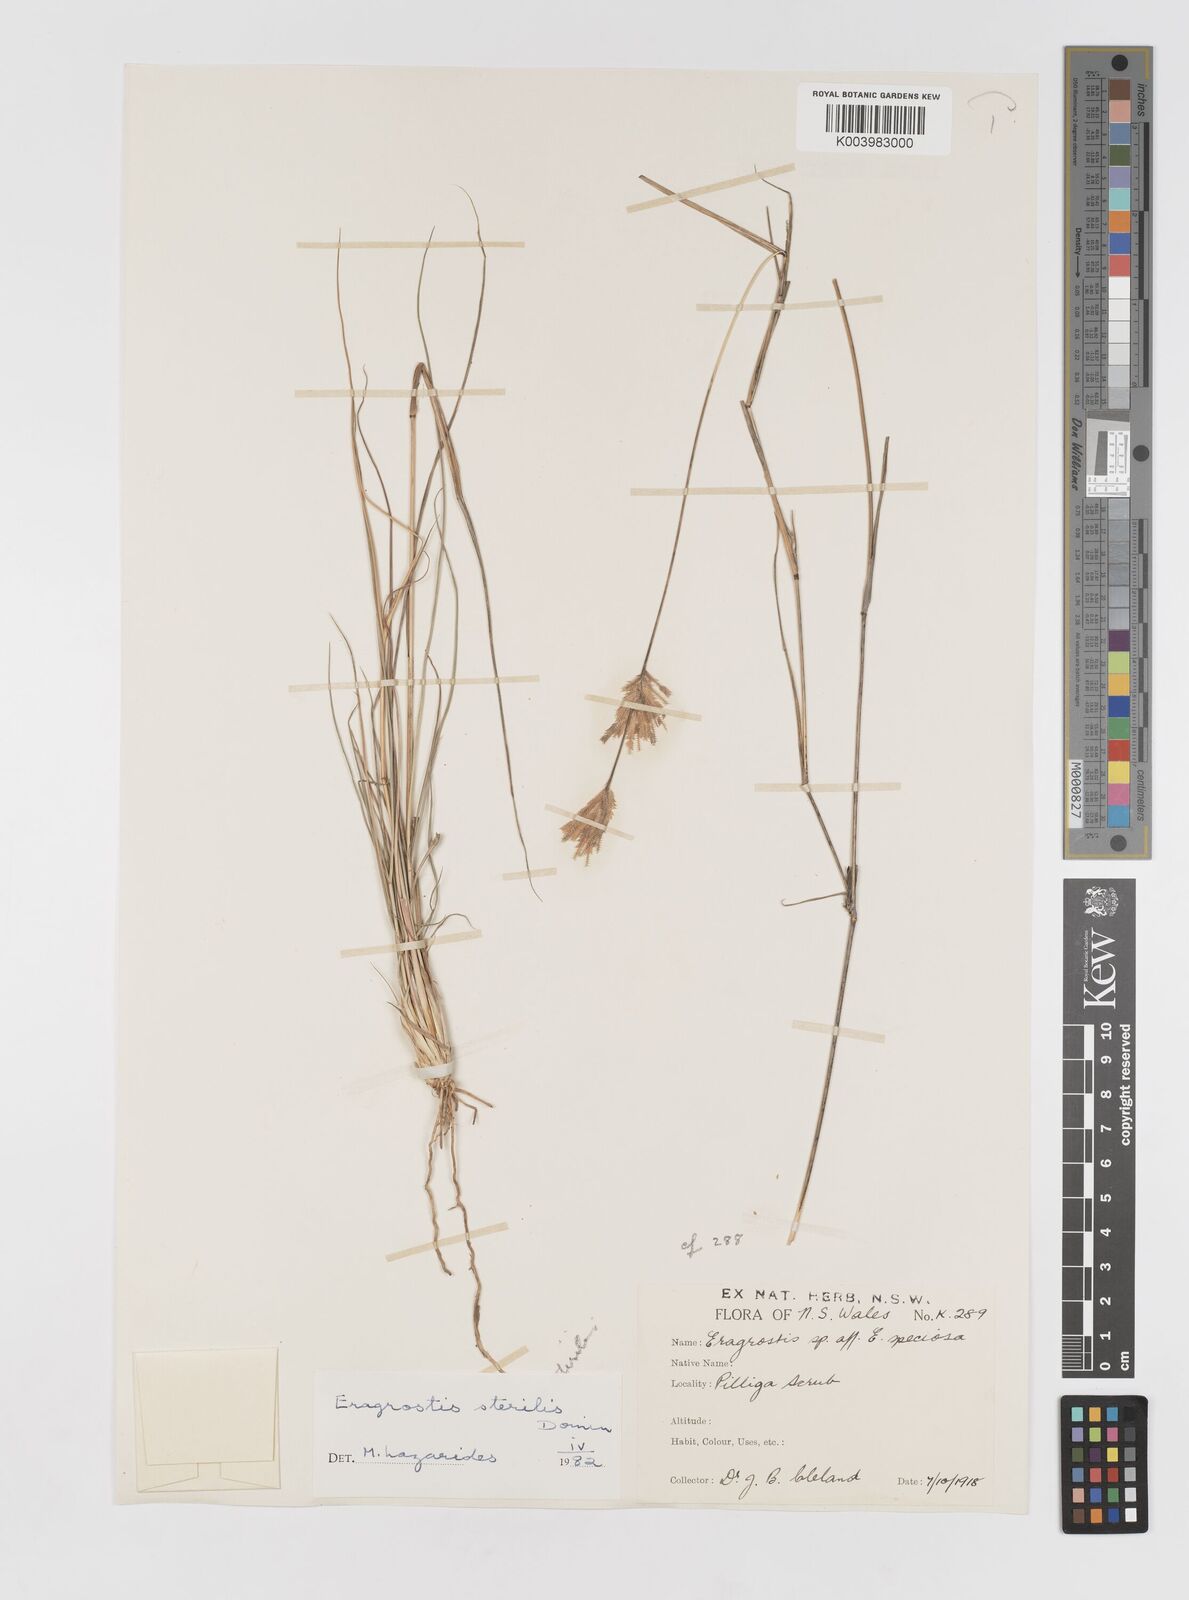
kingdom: Plantae
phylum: Tracheophyta
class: Liliopsida
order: Poales
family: Poaceae
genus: Eragrostis
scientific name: Eragrostis sterilis
